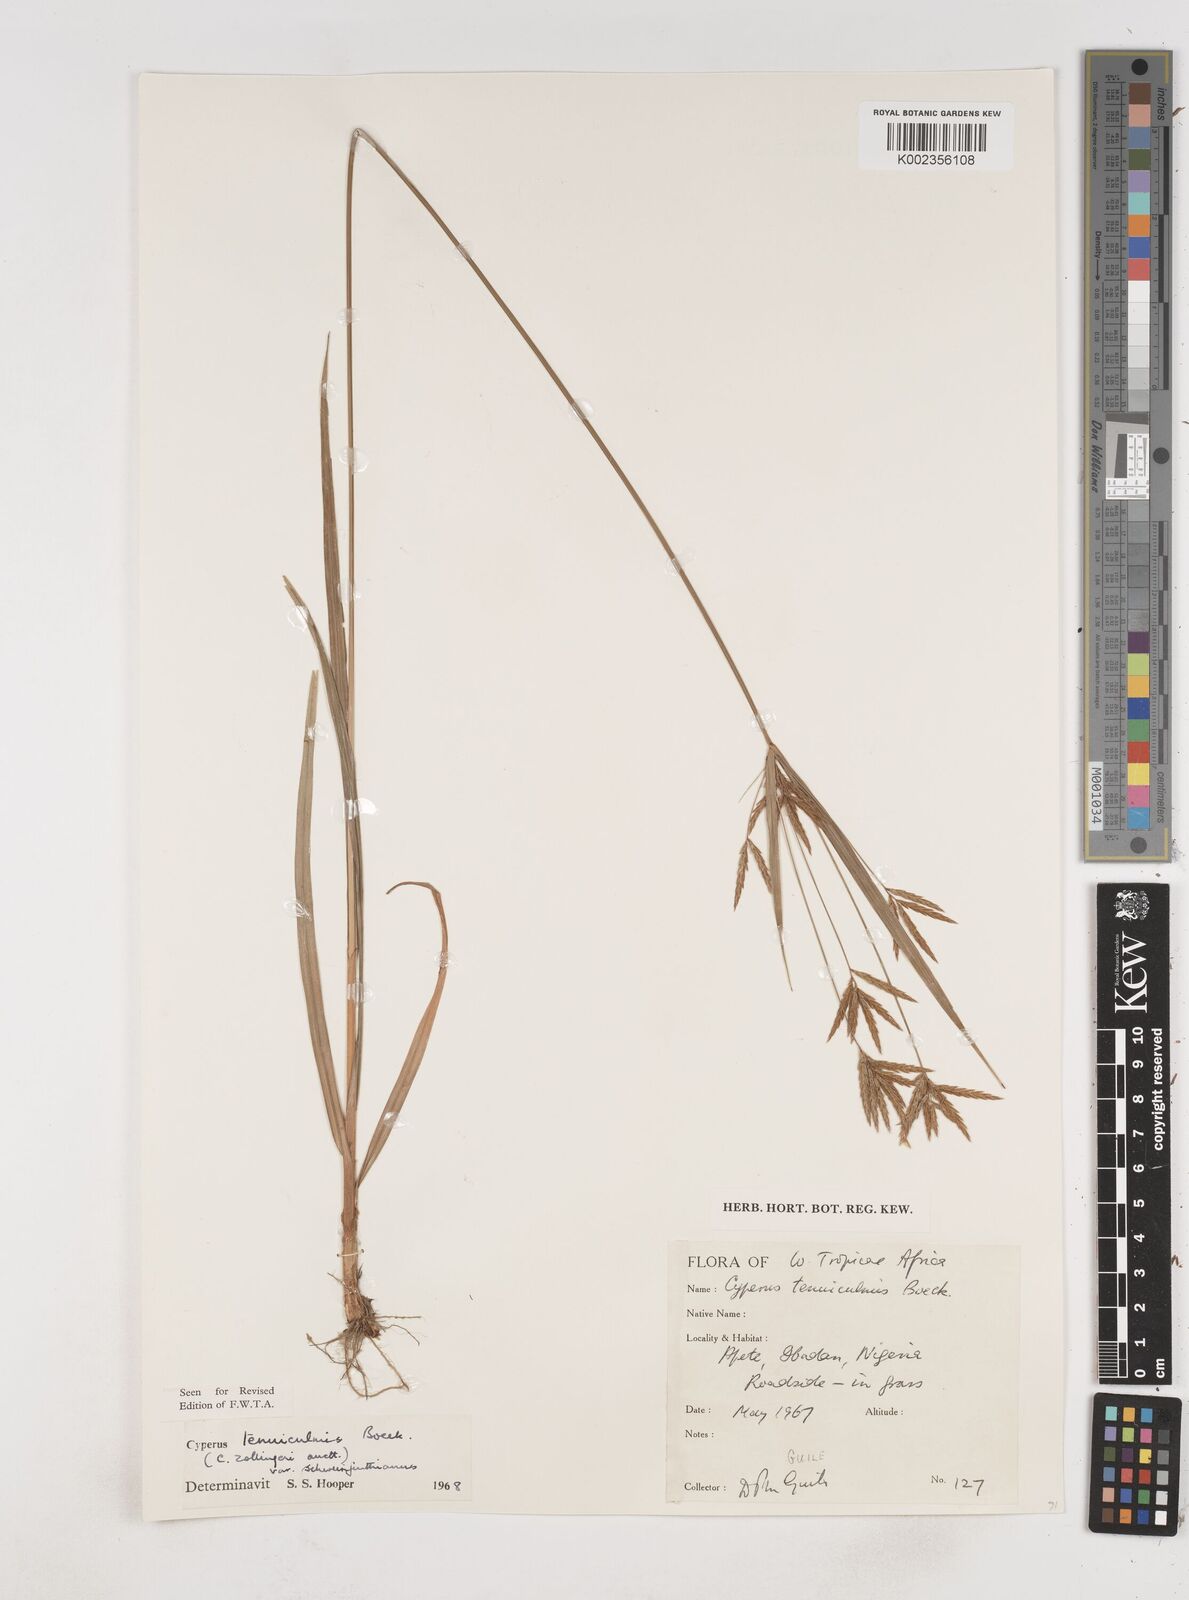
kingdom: Plantae
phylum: Tracheophyta
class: Liliopsida
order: Poales
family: Cyperaceae
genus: Cyperus
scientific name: Cyperus tenuiculmis
